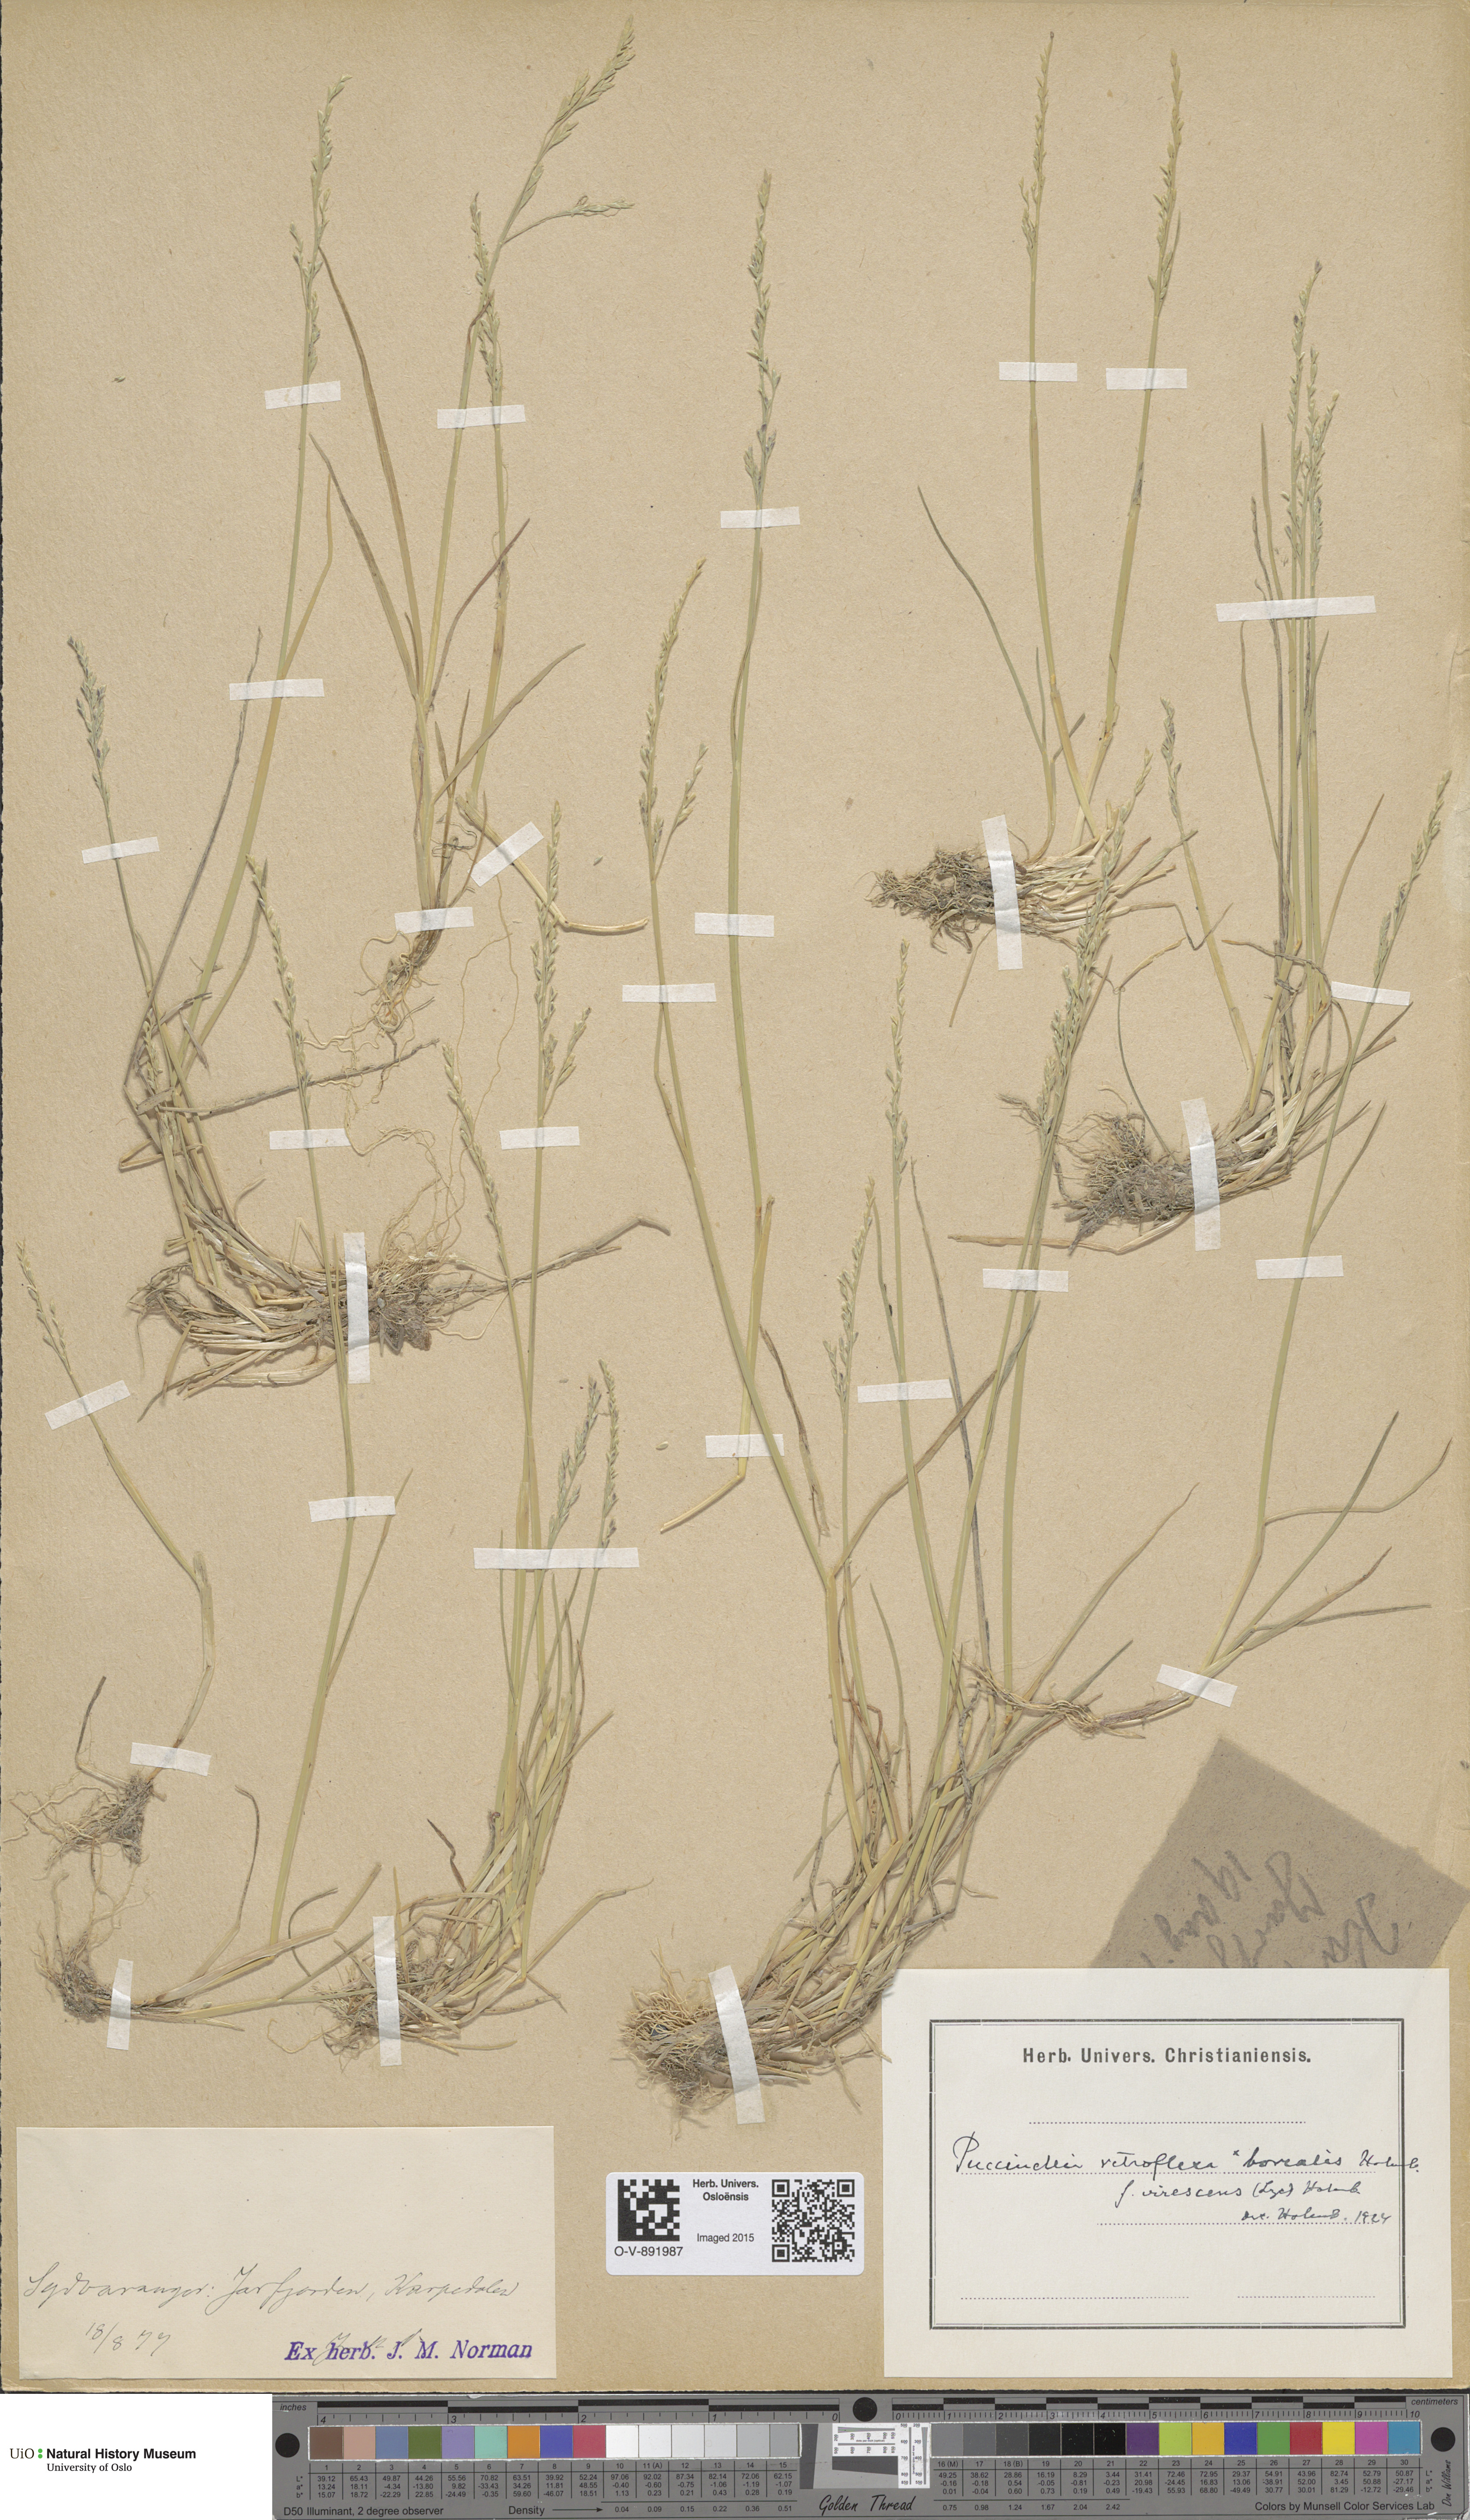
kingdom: Plantae
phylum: Tracheophyta
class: Liliopsida
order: Poales
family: Poaceae
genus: Puccinellia
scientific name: Puccinellia distans
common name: Weeping alkaligrass
